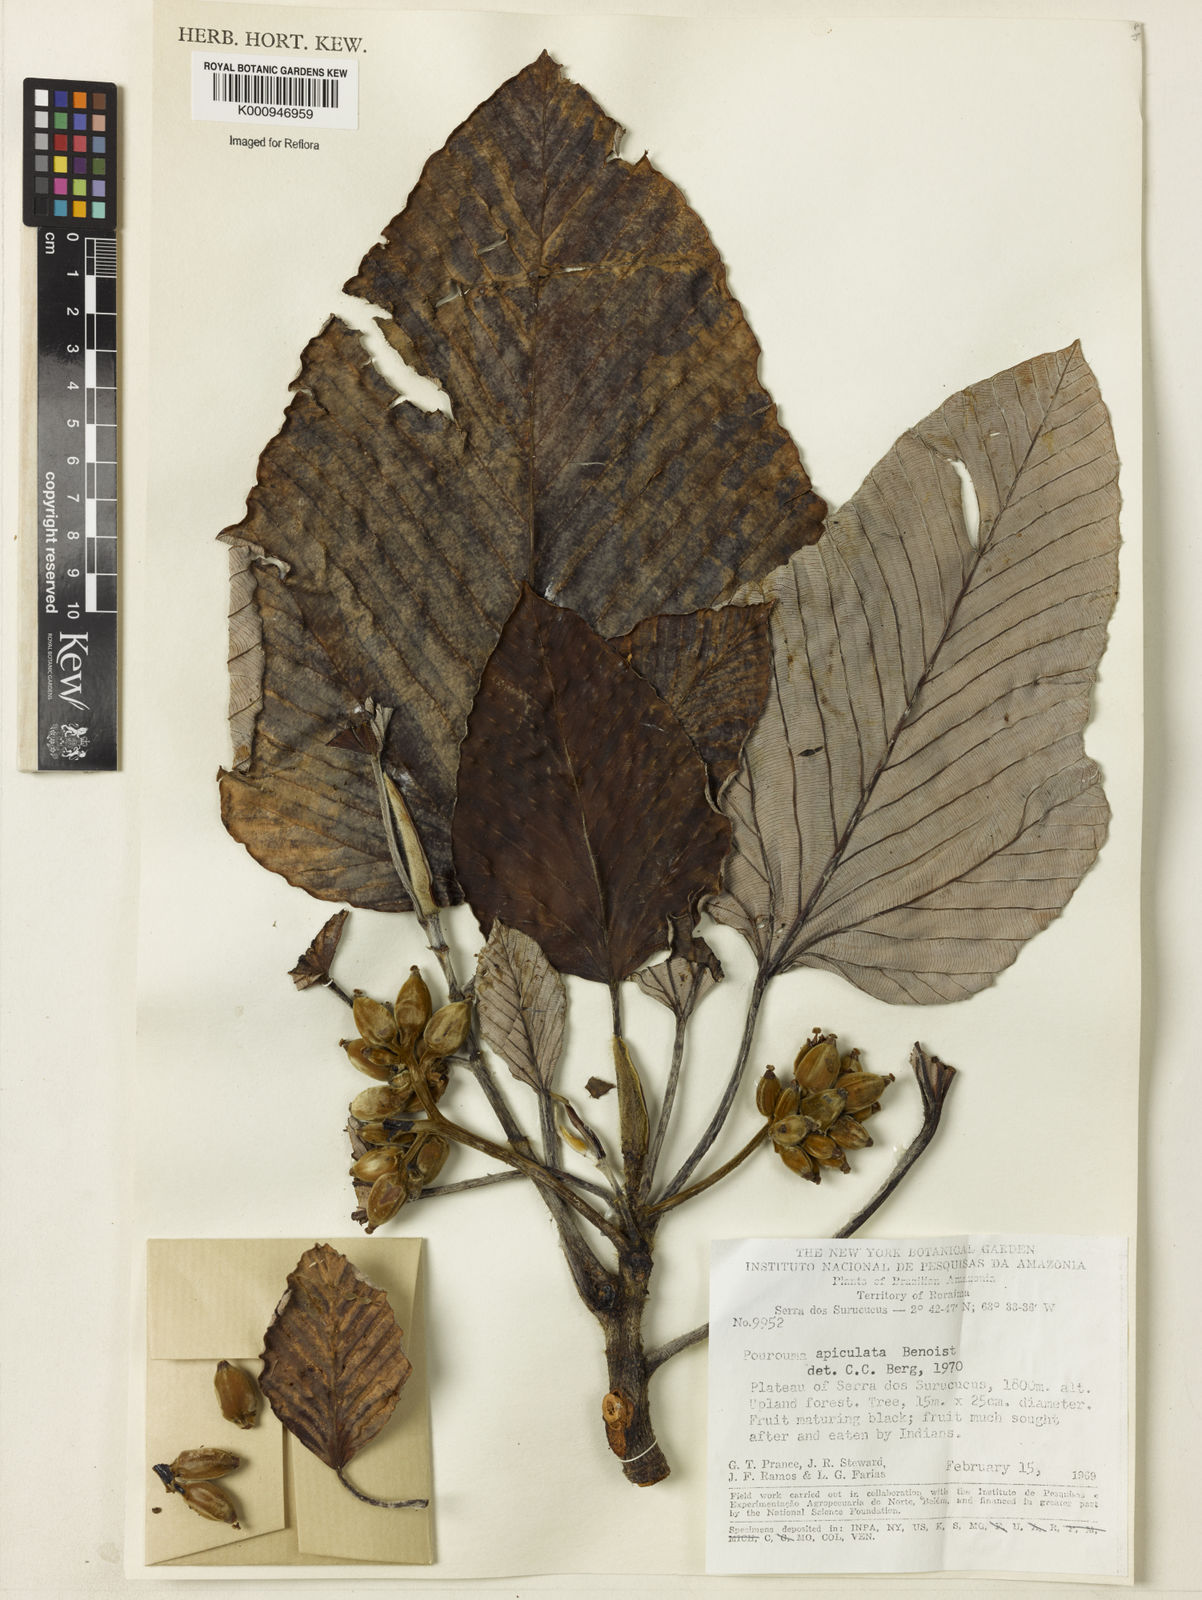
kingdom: Plantae
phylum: Tracheophyta
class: Magnoliopsida
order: Rosales
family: Urticaceae
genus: Pourouma
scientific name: Pourouma tomentosa
